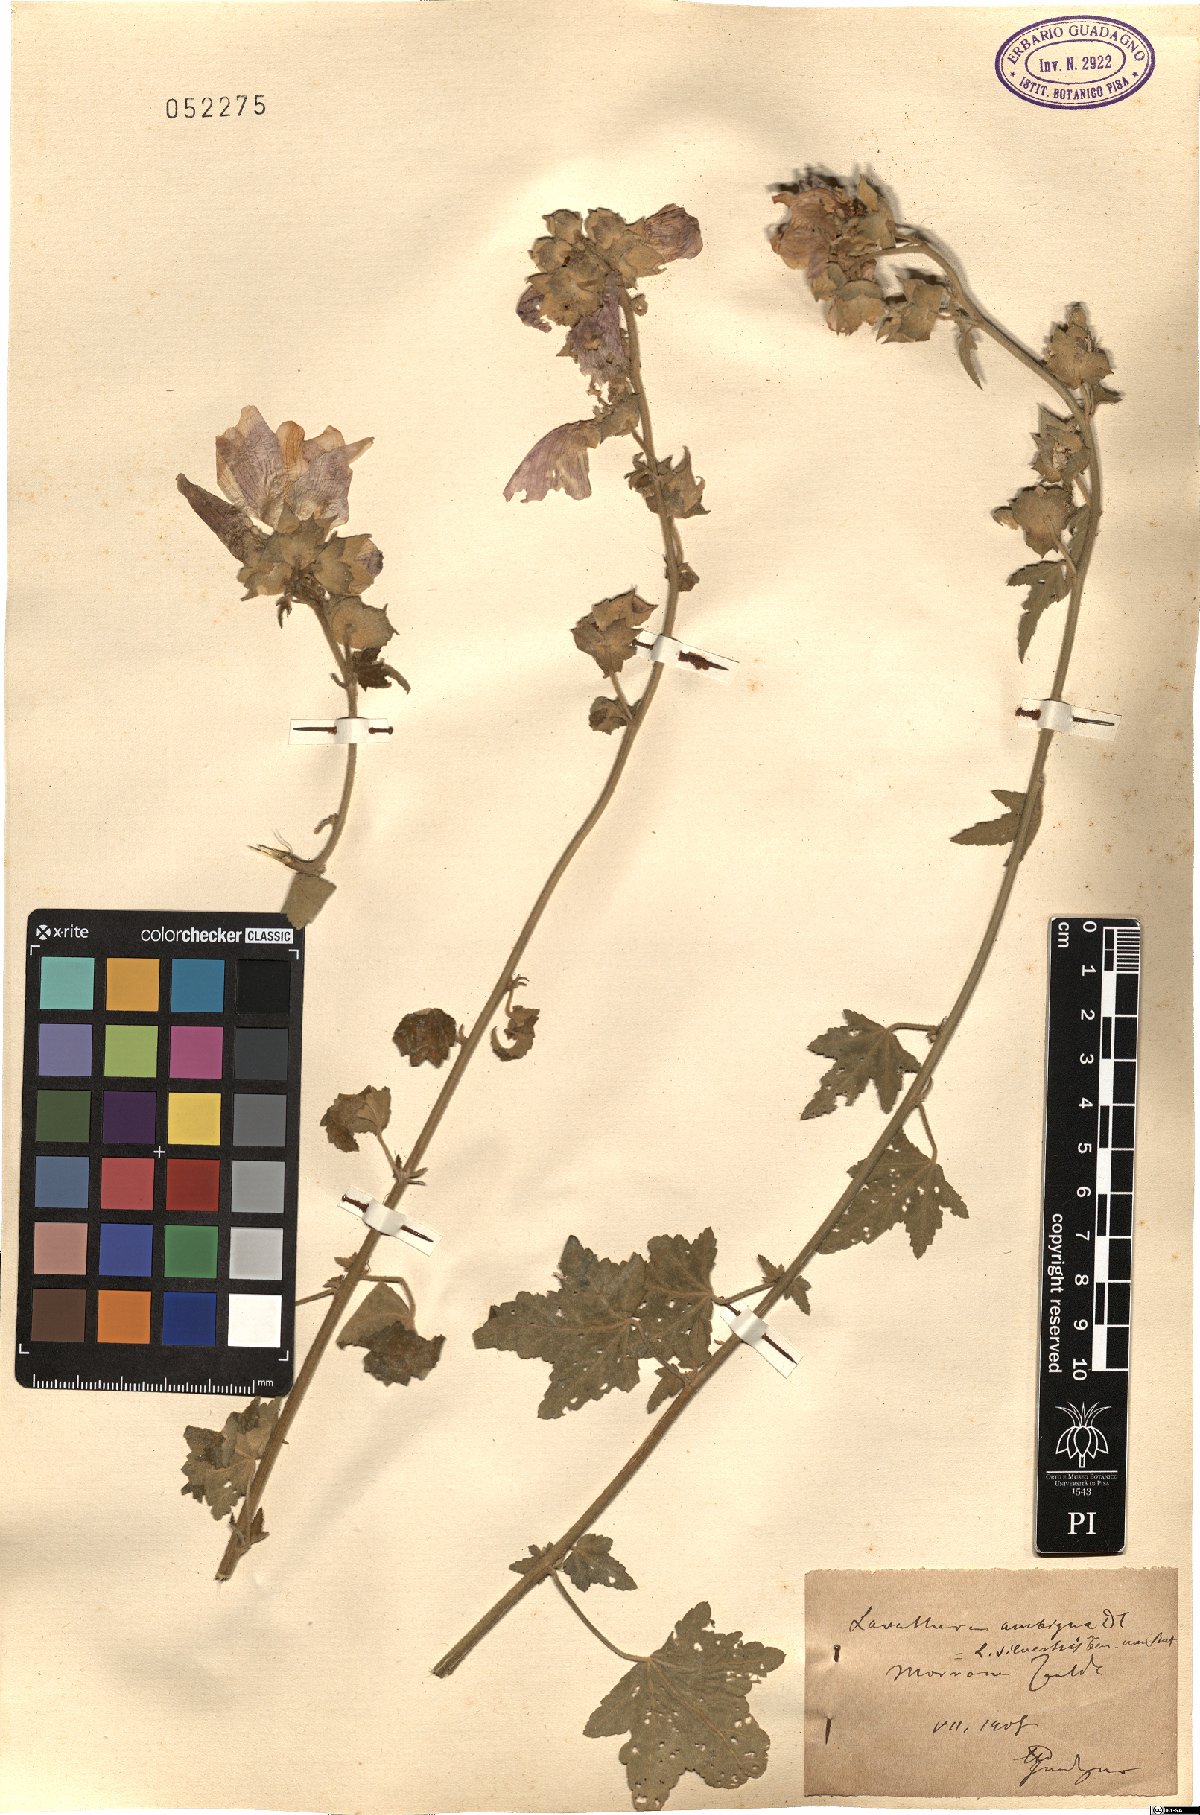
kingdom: Plantae
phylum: Tracheophyta
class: Magnoliopsida
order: Malvales
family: Malvaceae
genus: Malva
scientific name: Malva thuringiaca
